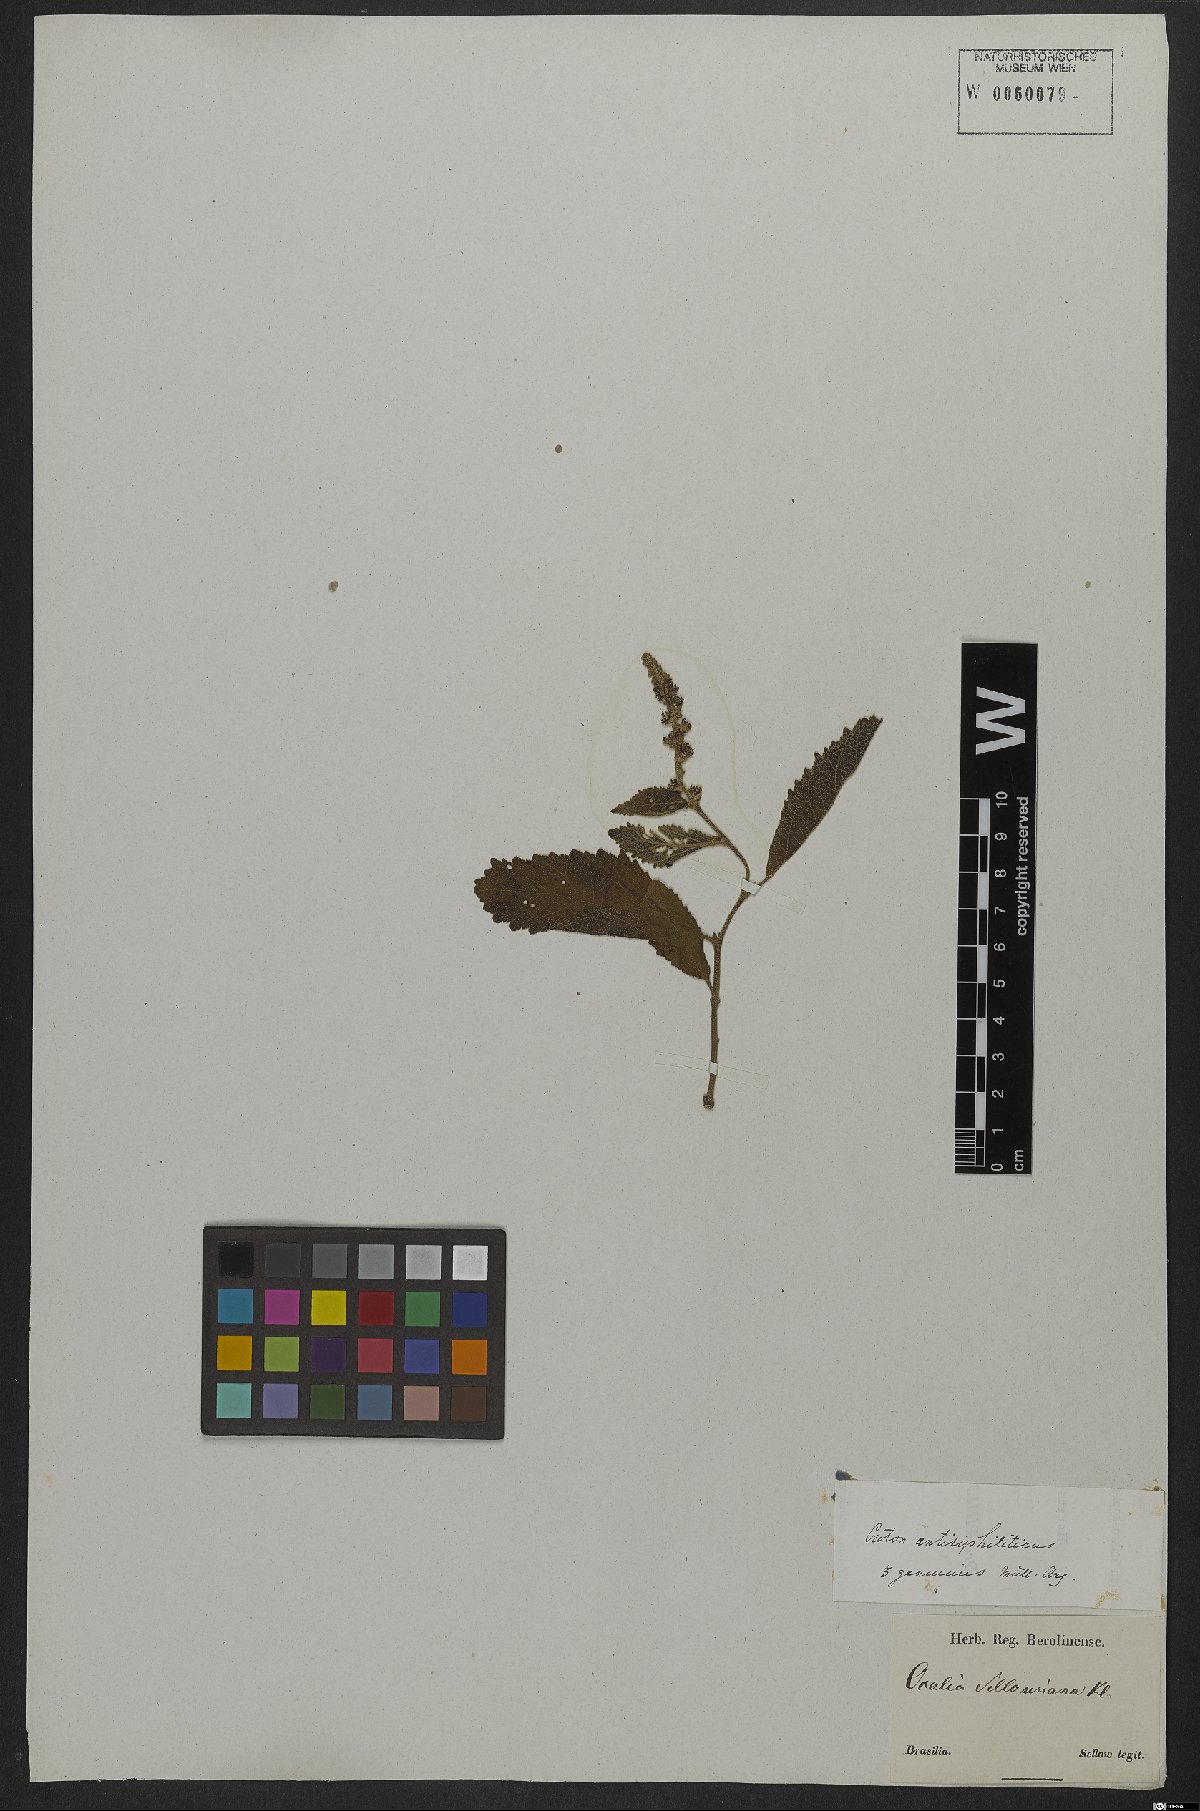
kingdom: Plantae
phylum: Tracheophyta
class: Magnoliopsida
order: Malpighiales
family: Euphorbiaceae
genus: Croton
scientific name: Croton antisyphiliticus
